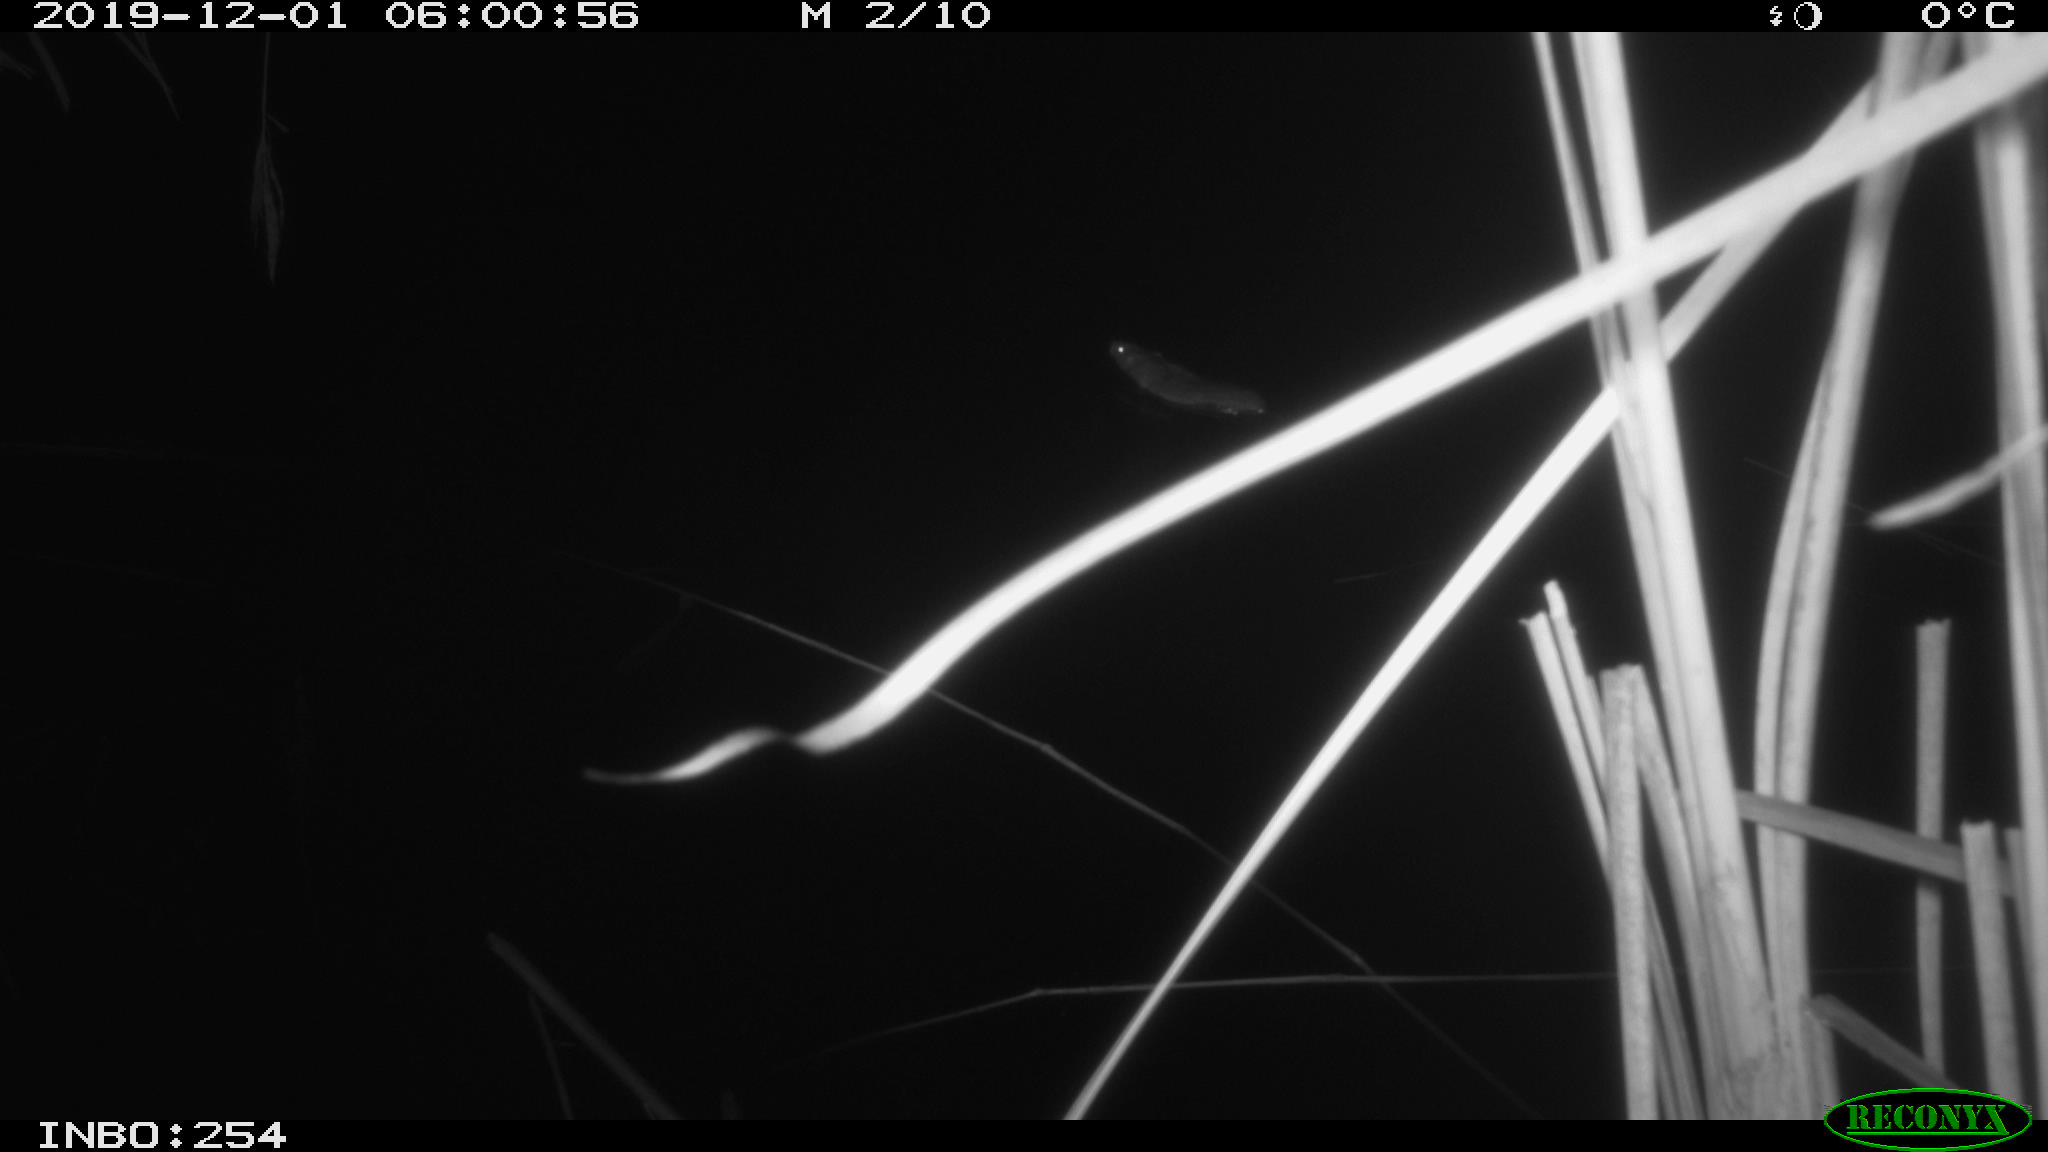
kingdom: Animalia
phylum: Chordata
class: Mammalia
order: Rodentia
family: Muridae
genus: Rattus
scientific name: Rattus norvegicus
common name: Brown rat
